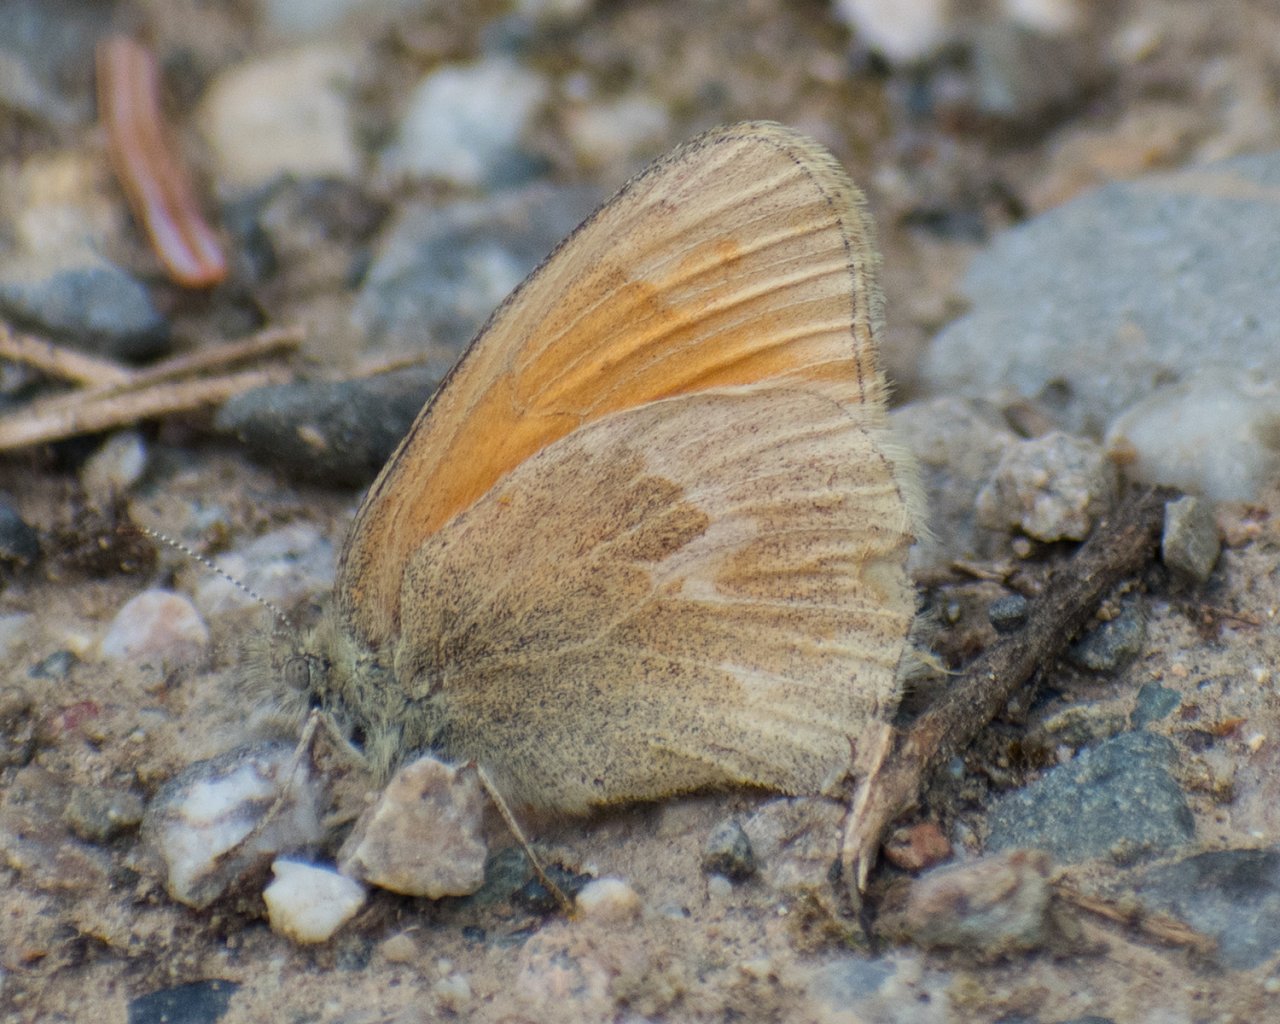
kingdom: Animalia
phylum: Arthropoda
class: Insecta
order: Lepidoptera
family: Nymphalidae
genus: Coenonympha
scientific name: Coenonympha tullia
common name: Large Heath
